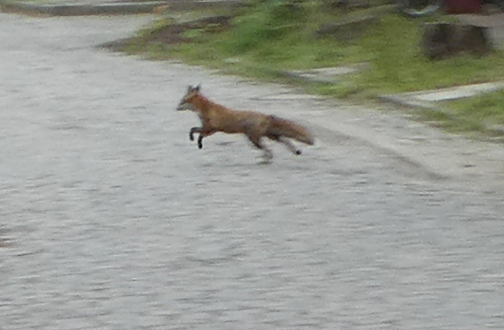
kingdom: Animalia
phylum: Chordata
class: Mammalia
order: Carnivora
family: Canidae
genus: Vulpes
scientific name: Vulpes vulpes
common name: Red fox
